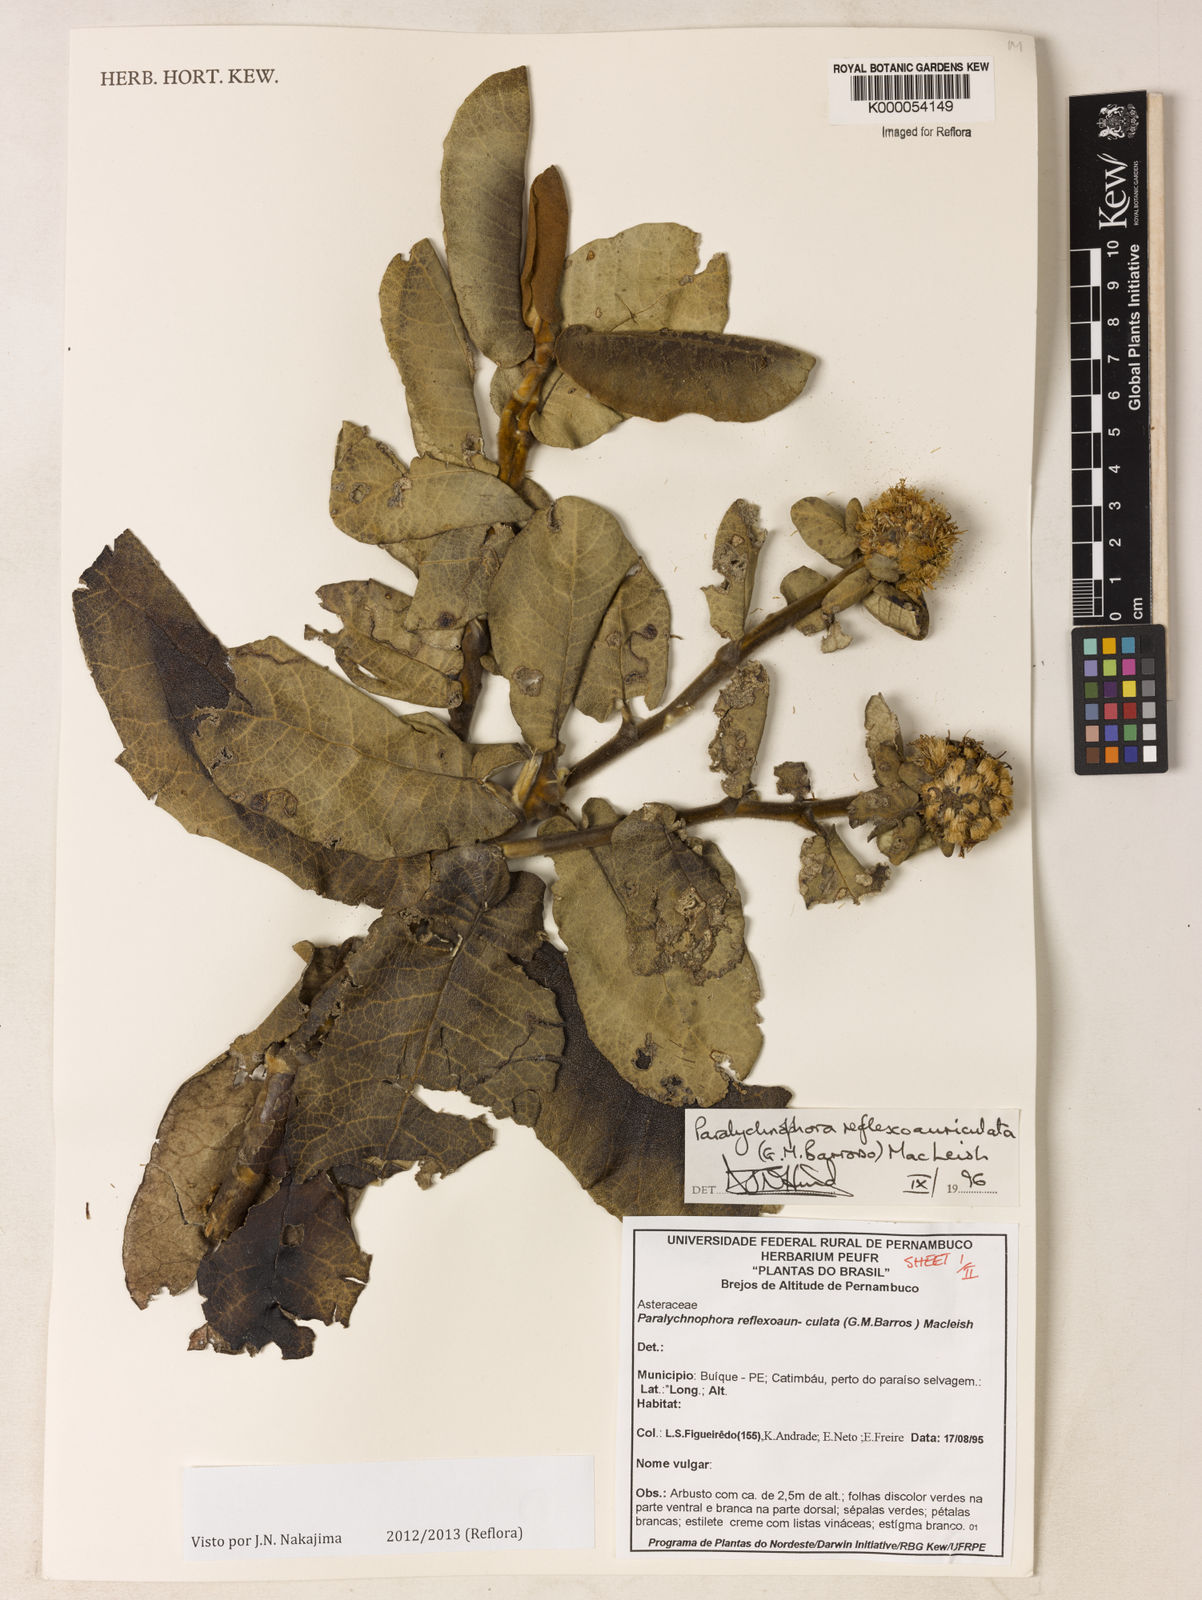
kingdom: Plantae
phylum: Tracheophyta
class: Magnoliopsida
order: Asterales
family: Asteraceae
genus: Paralychnophora
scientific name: Paralychnophora reflexoauriculata
